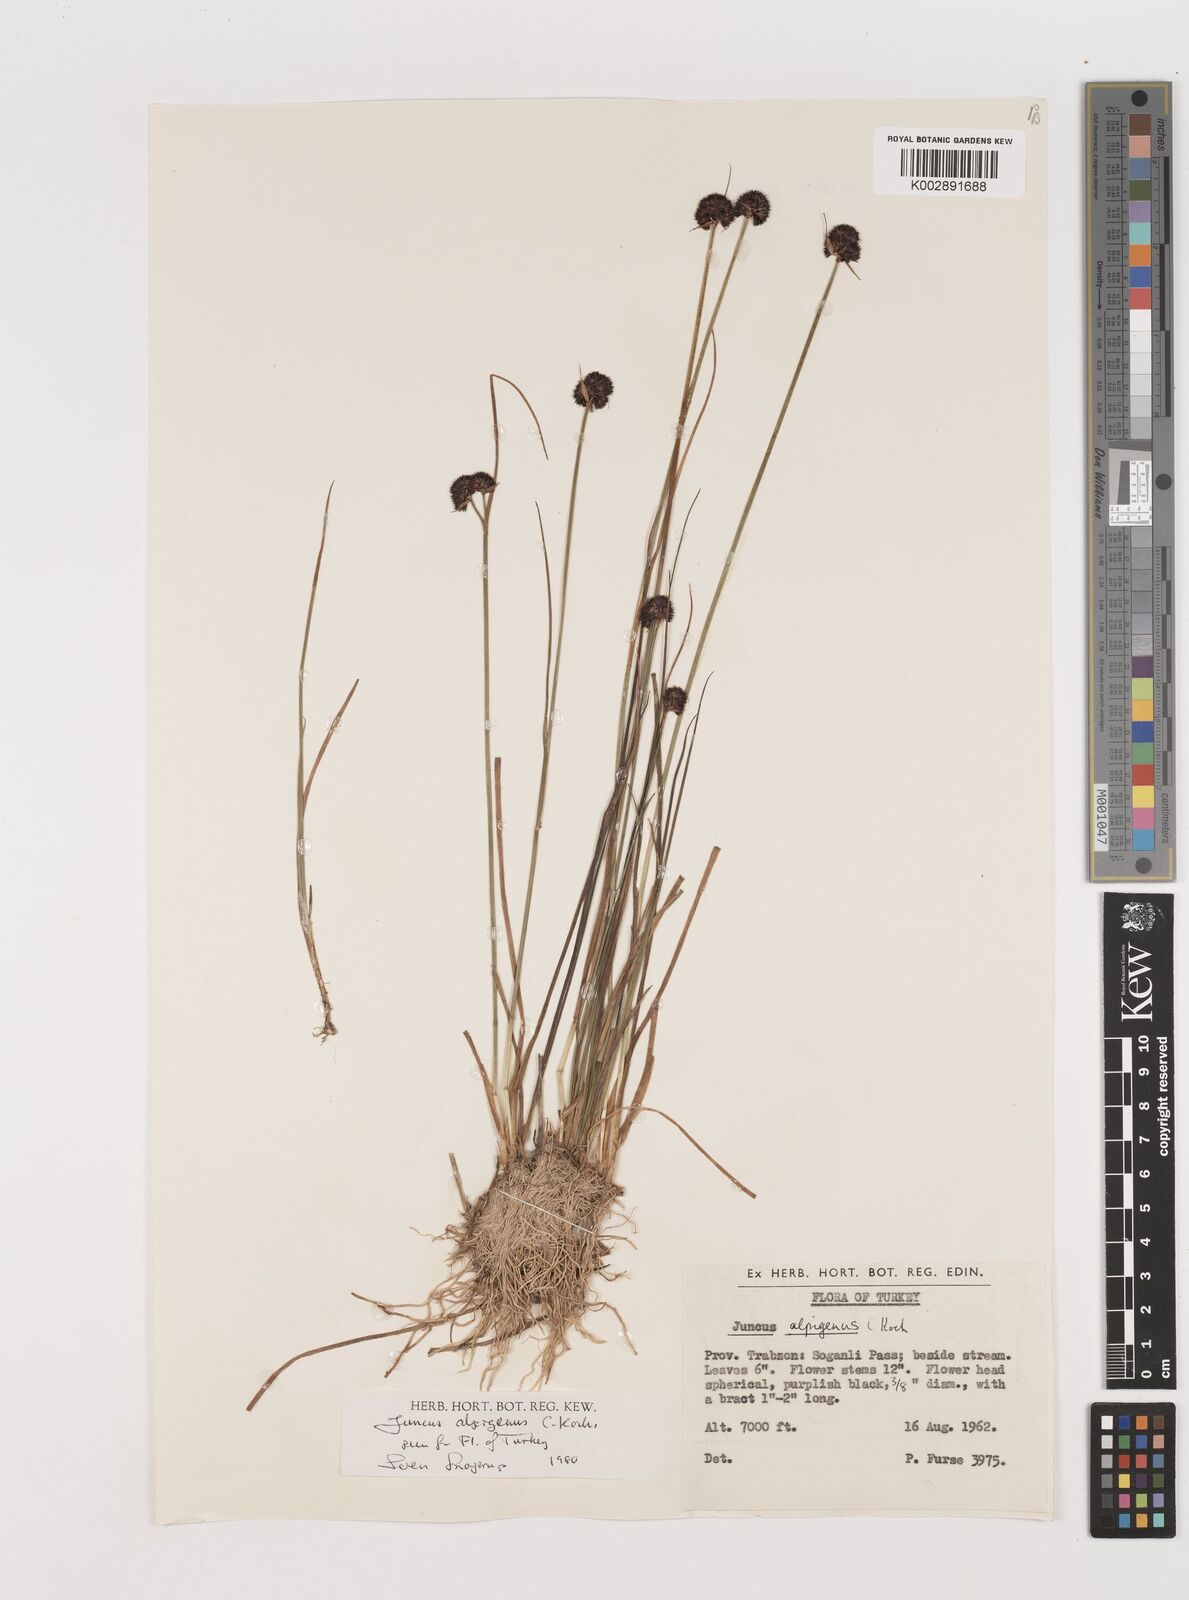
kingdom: Plantae
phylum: Tracheophyta
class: Liliopsida
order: Poales
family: Juncaceae
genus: Juncus
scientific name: Juncus alpigenus
